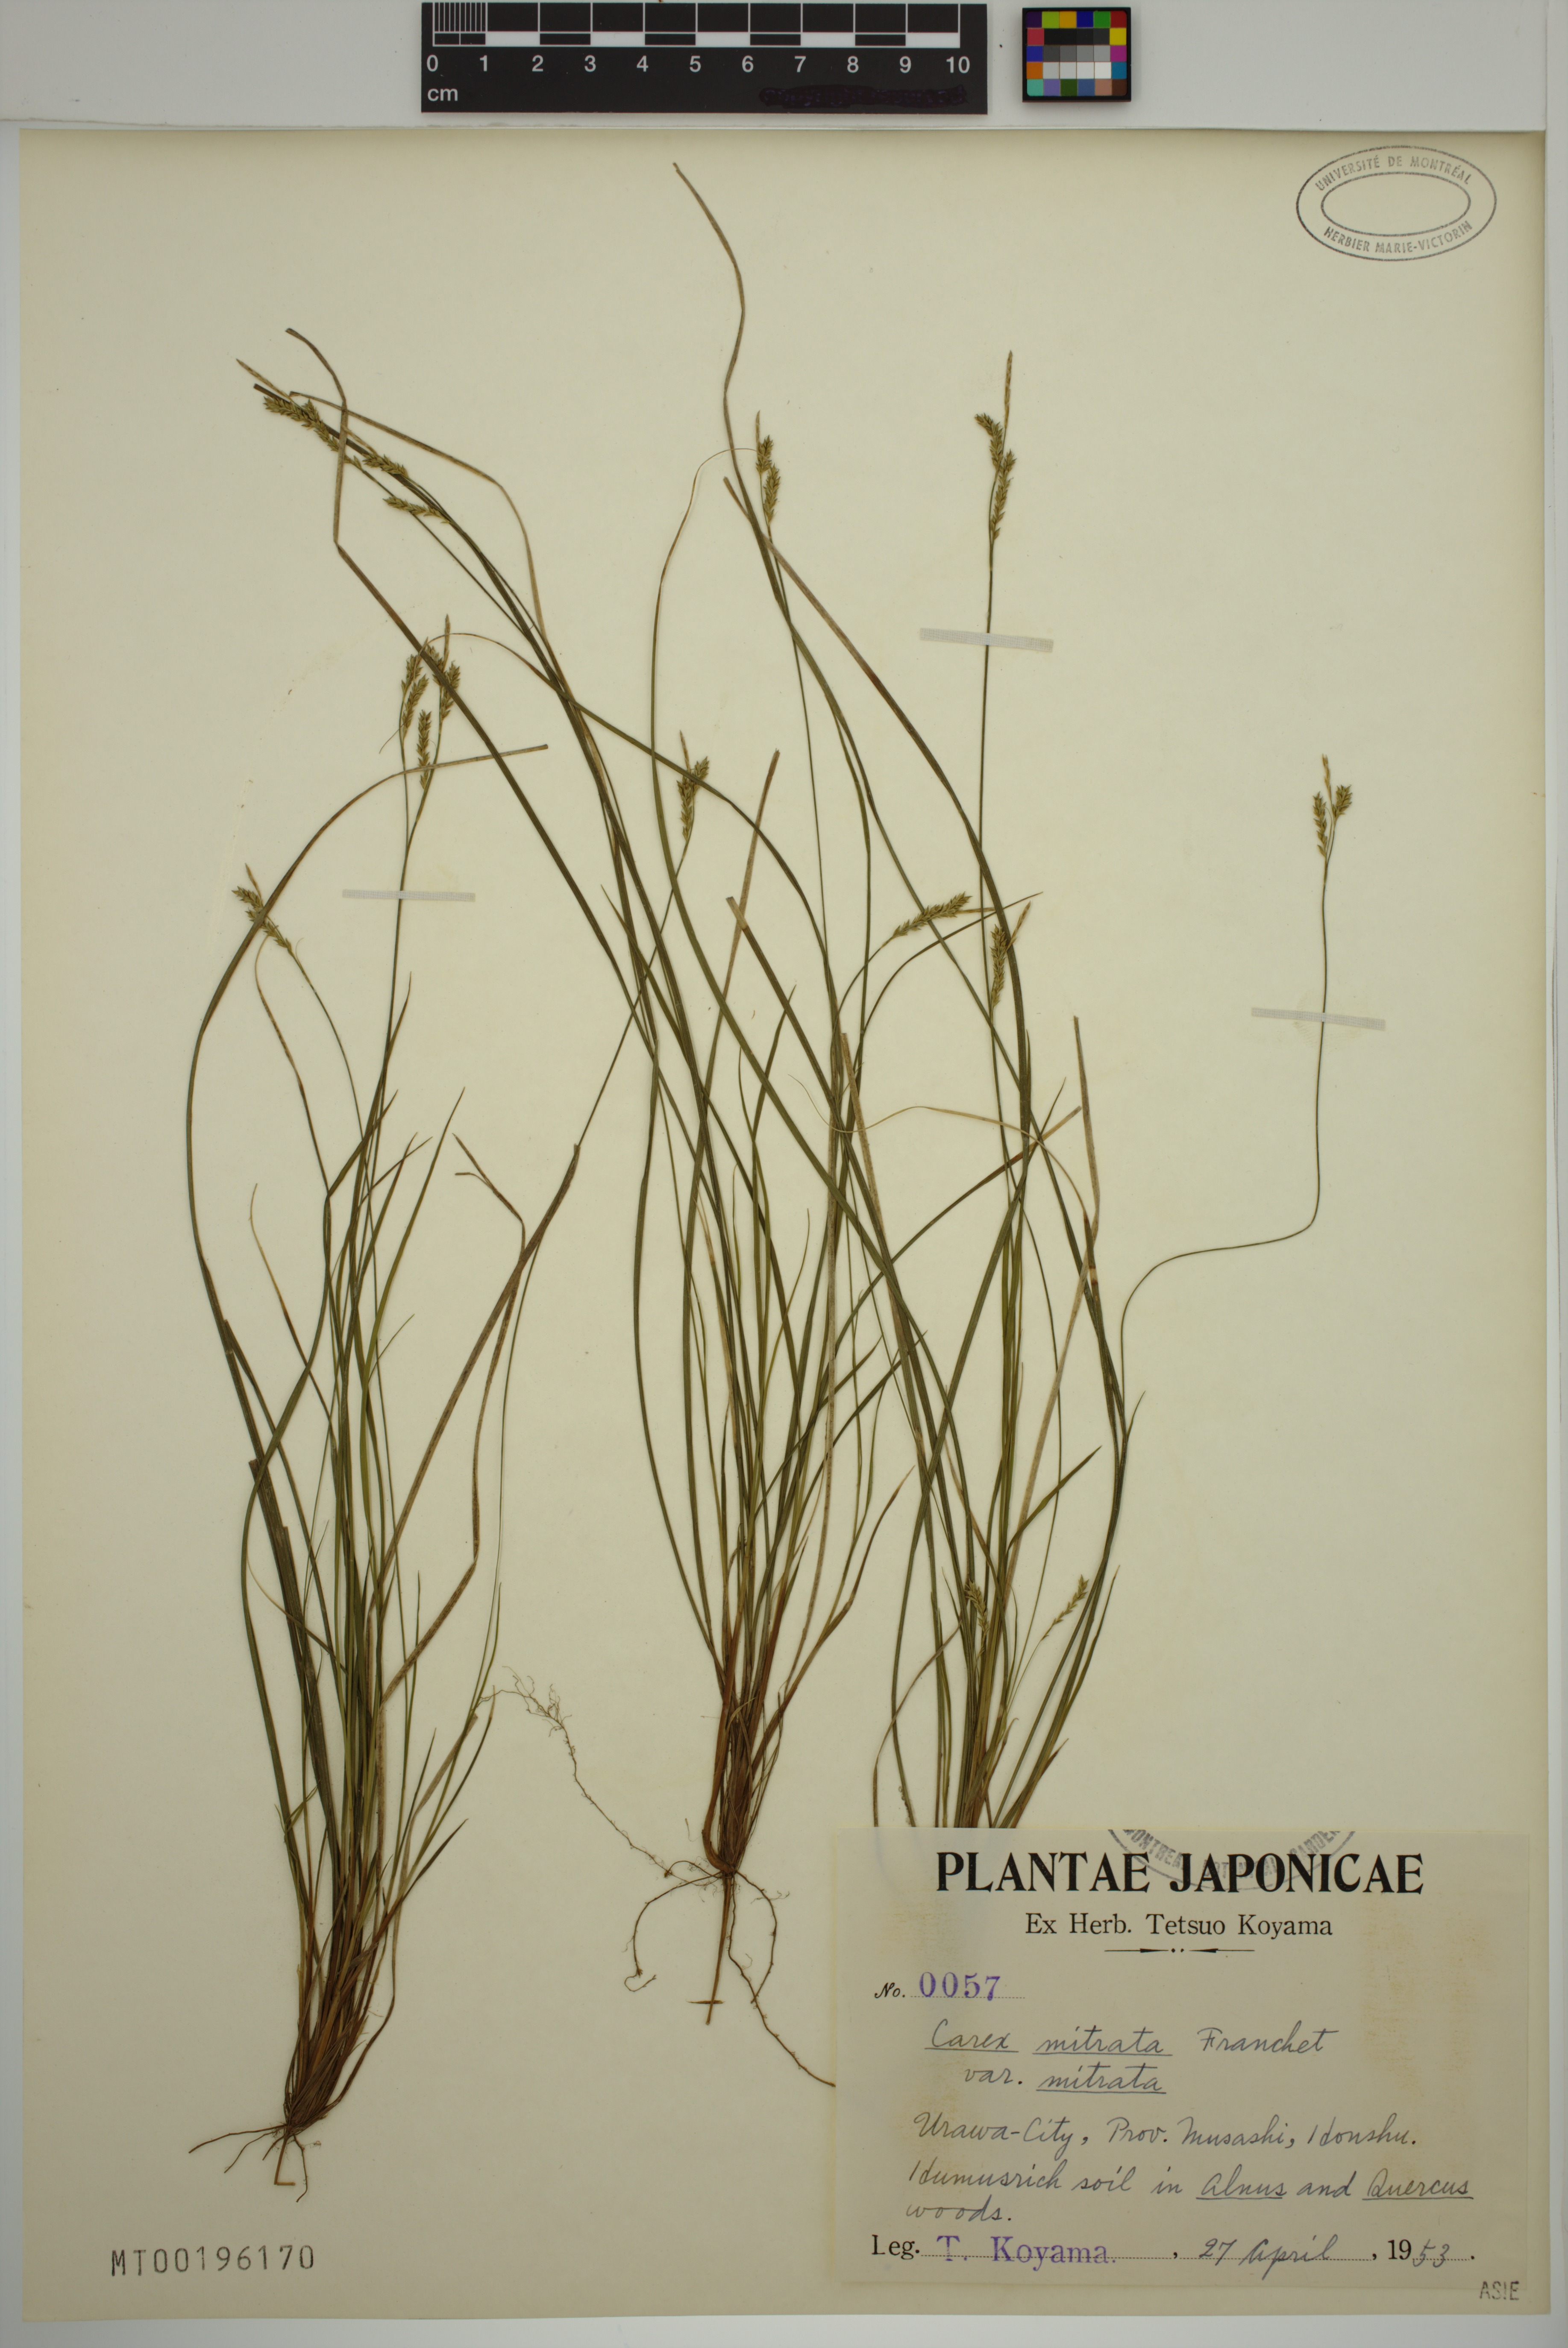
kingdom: Plantae
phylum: Tracheophyta
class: Liliopsida
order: Poales
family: Cyperaceae
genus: Carex
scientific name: Carex mitrata
